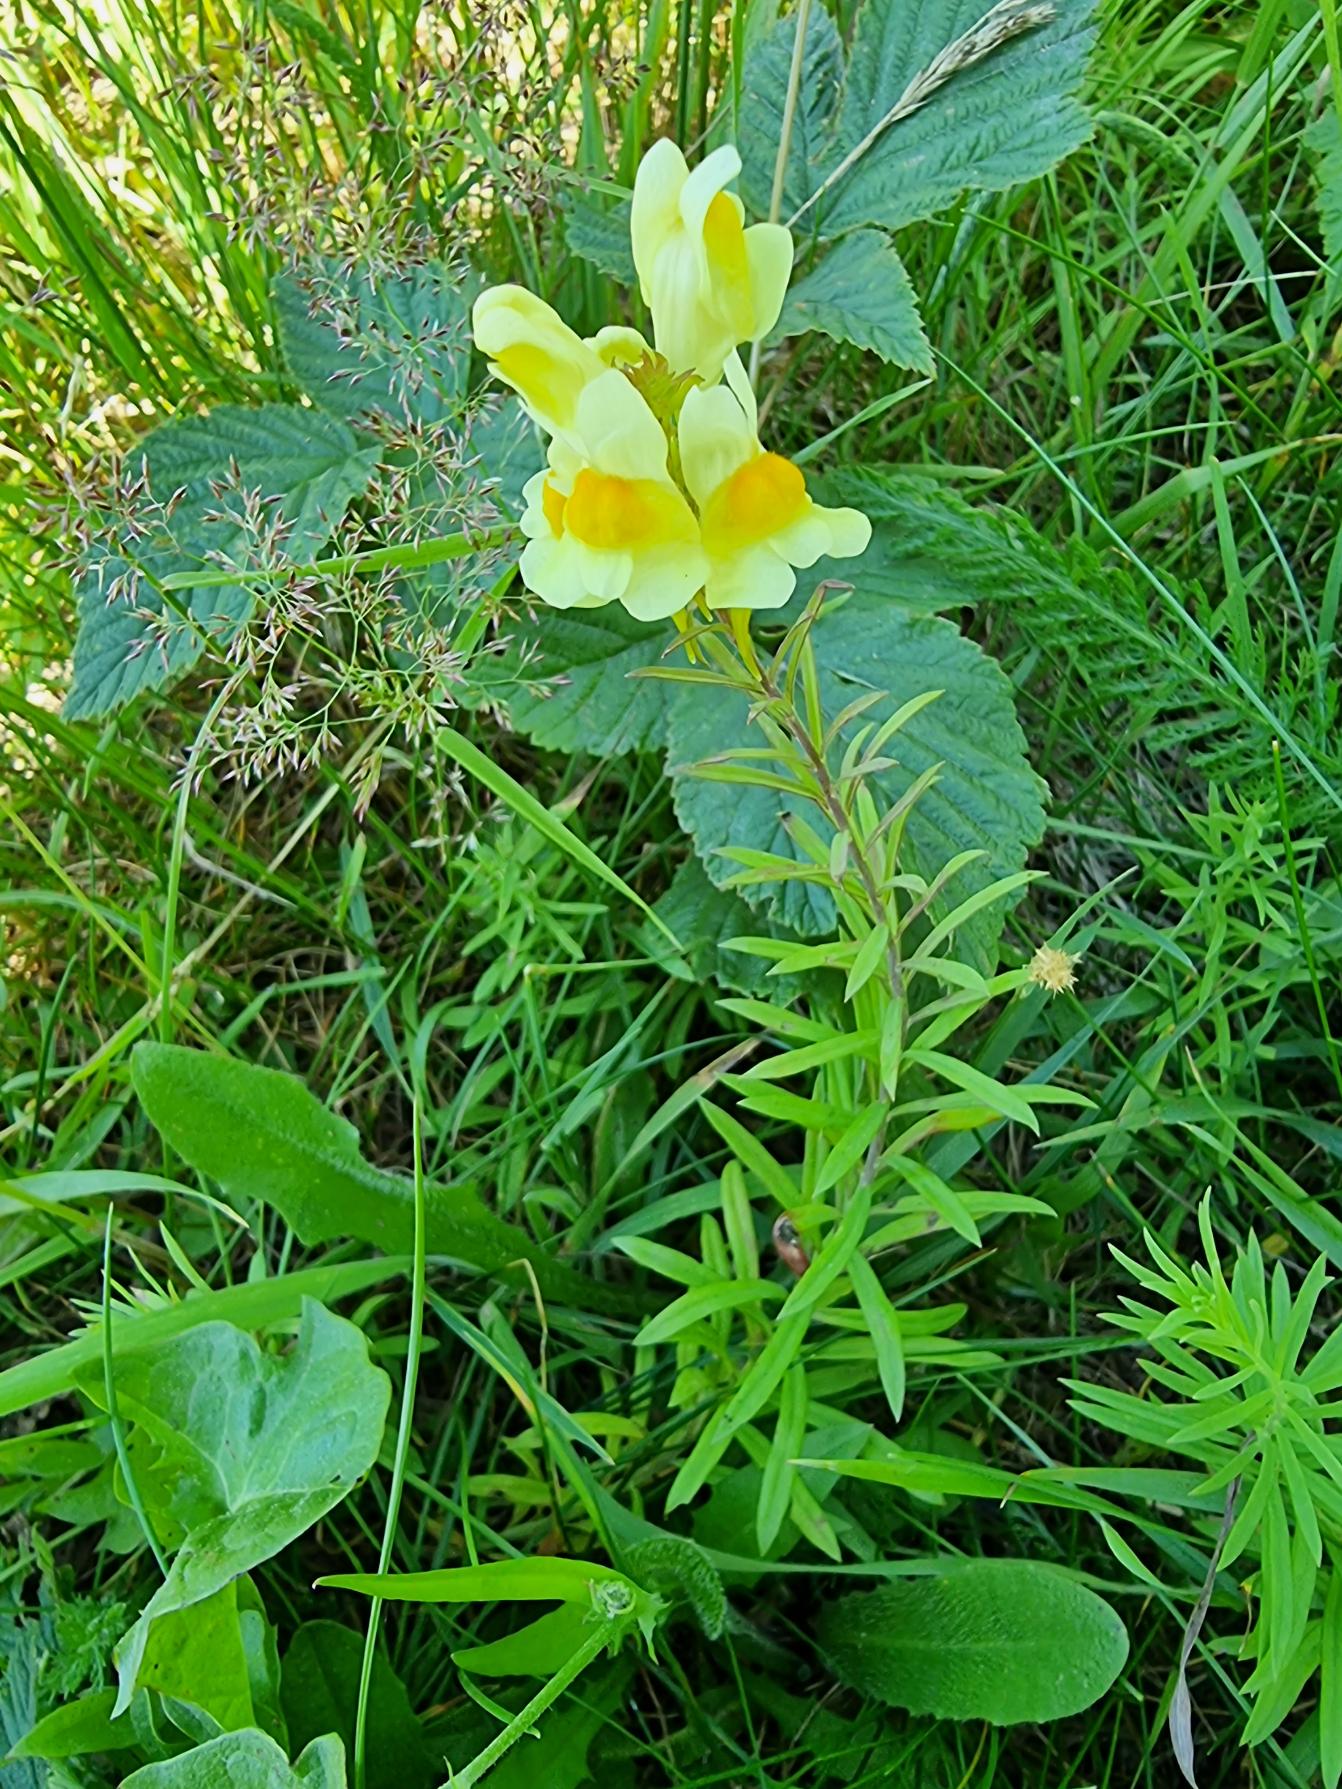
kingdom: Plantae
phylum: Tracheophyta
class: Magnoliopsida
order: Lamiales
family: Plantaginaceae
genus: Linaria
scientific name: Linaria vulgaris
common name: Almindelig torskemund
